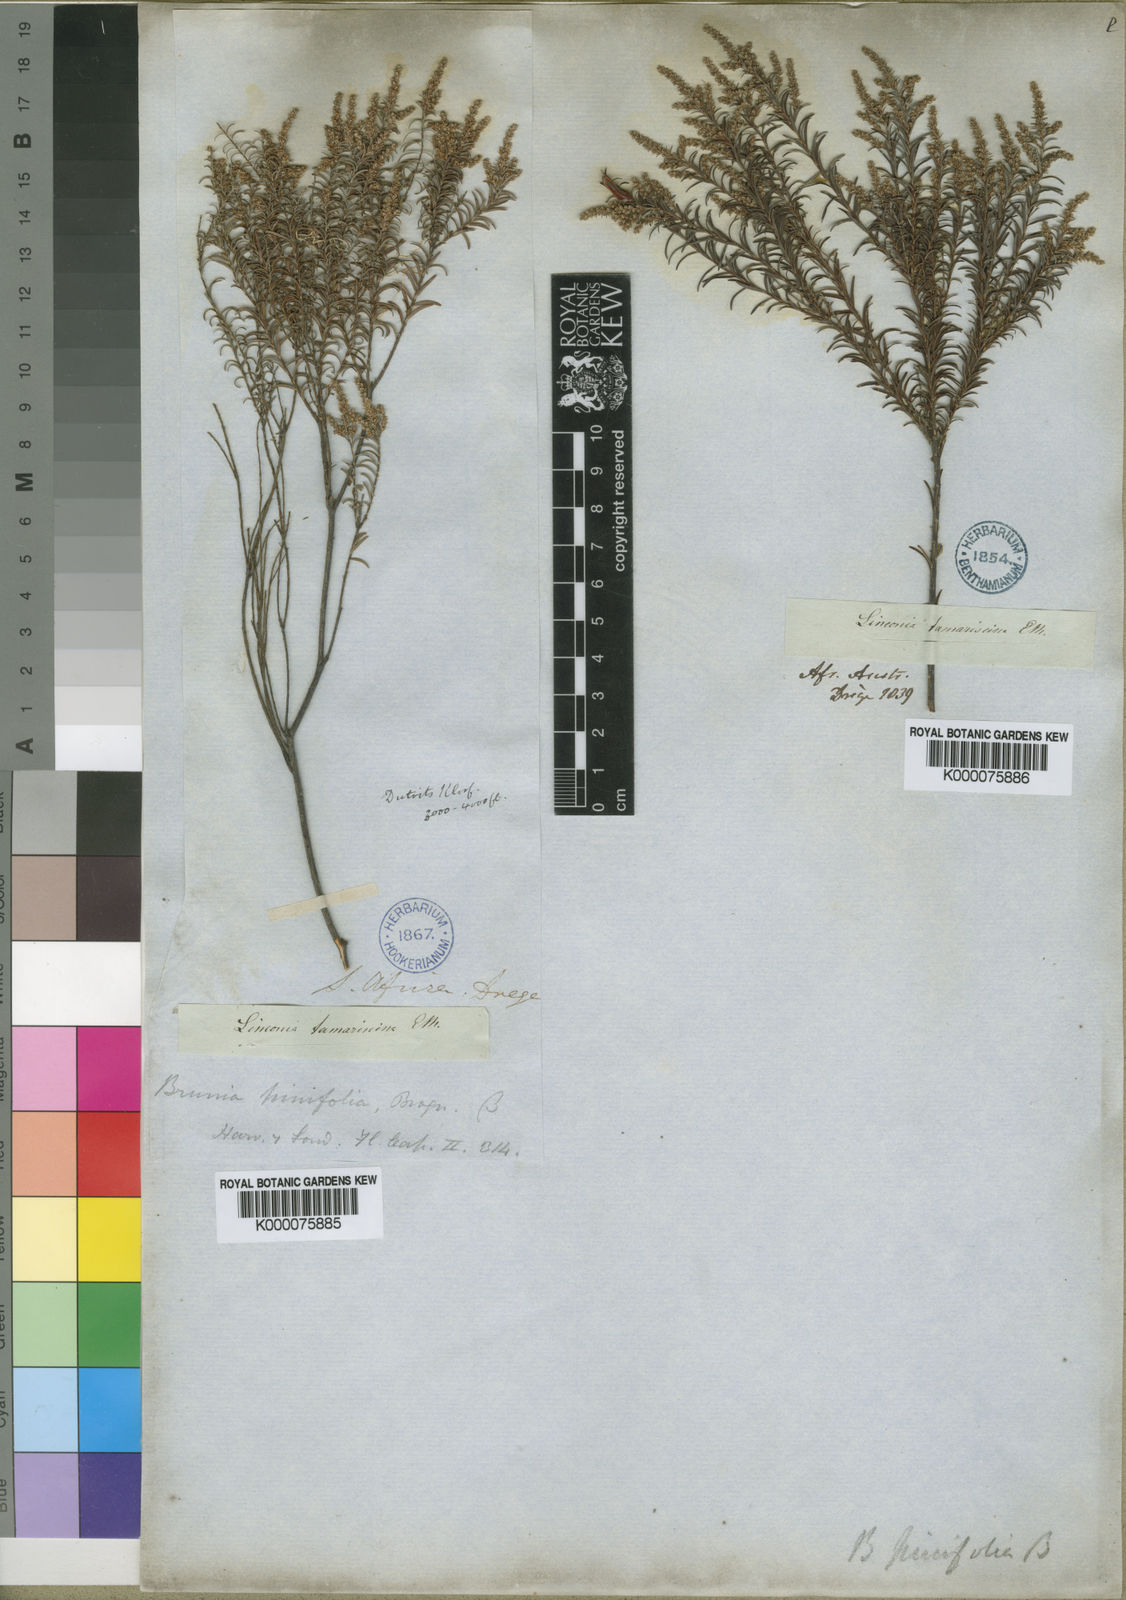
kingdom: Plantae
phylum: Tracheophyta
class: Magnoliopsida
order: Bruniales
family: Bruniaceae
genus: Brunia
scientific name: Brunia africana
